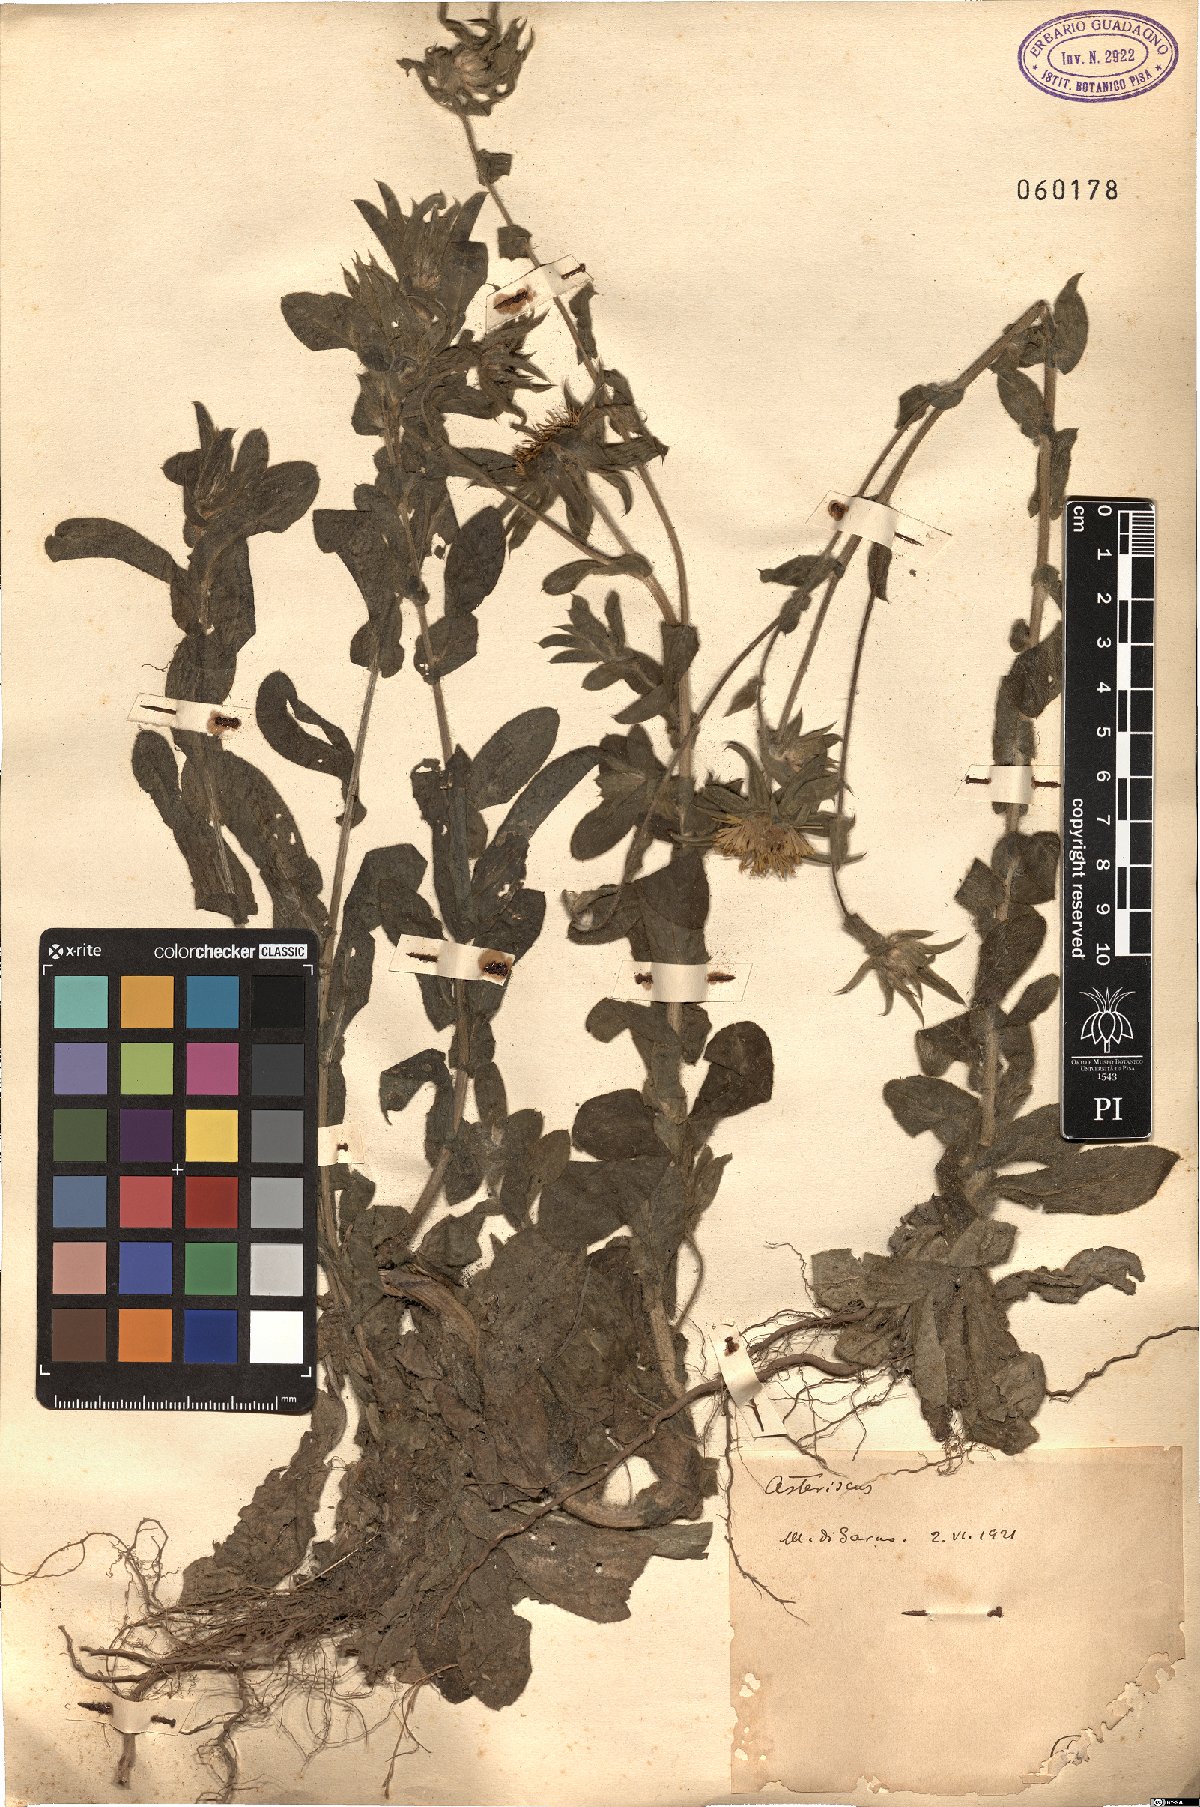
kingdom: Plantae
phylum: Tracheophyta
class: Magnoliopsida
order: Asterales
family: Asteraceae
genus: Asteriscus
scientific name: Asteriscus
